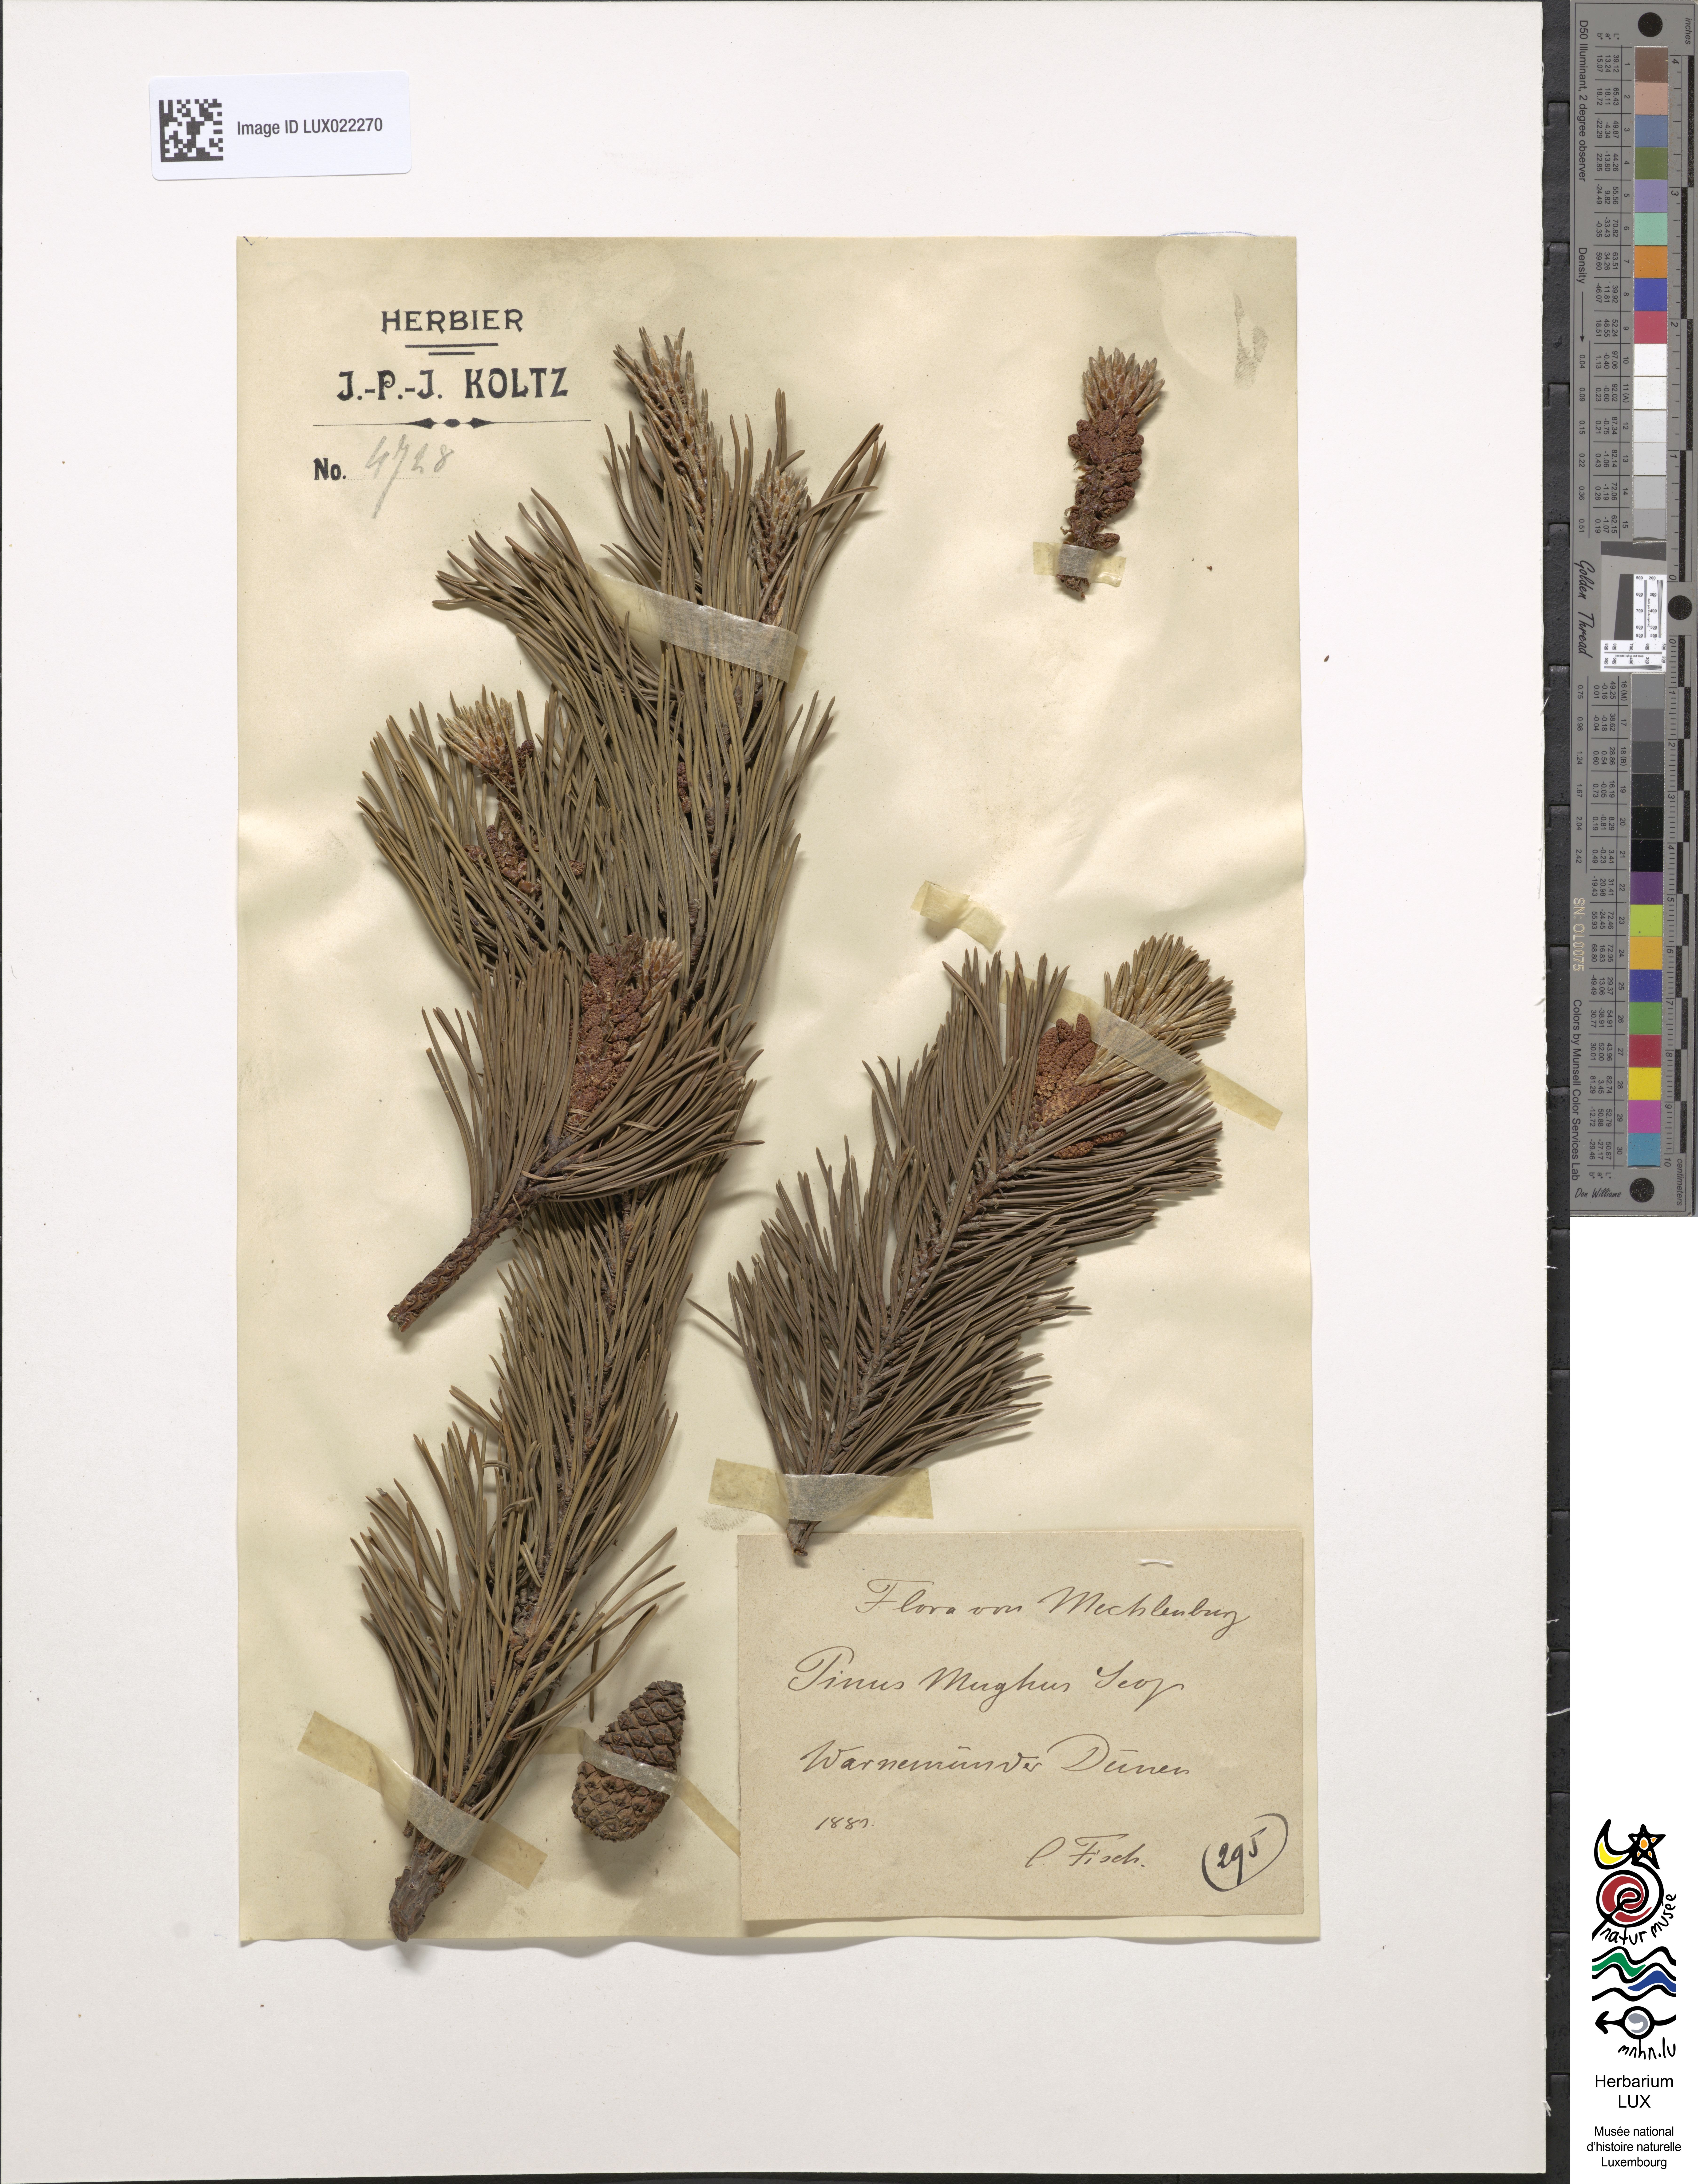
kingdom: Plantae
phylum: Tracheophyta
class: Pinopsida
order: Pinales
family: Pinaceae
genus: Pinus
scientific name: Pinus mugo
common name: Mugo pine
